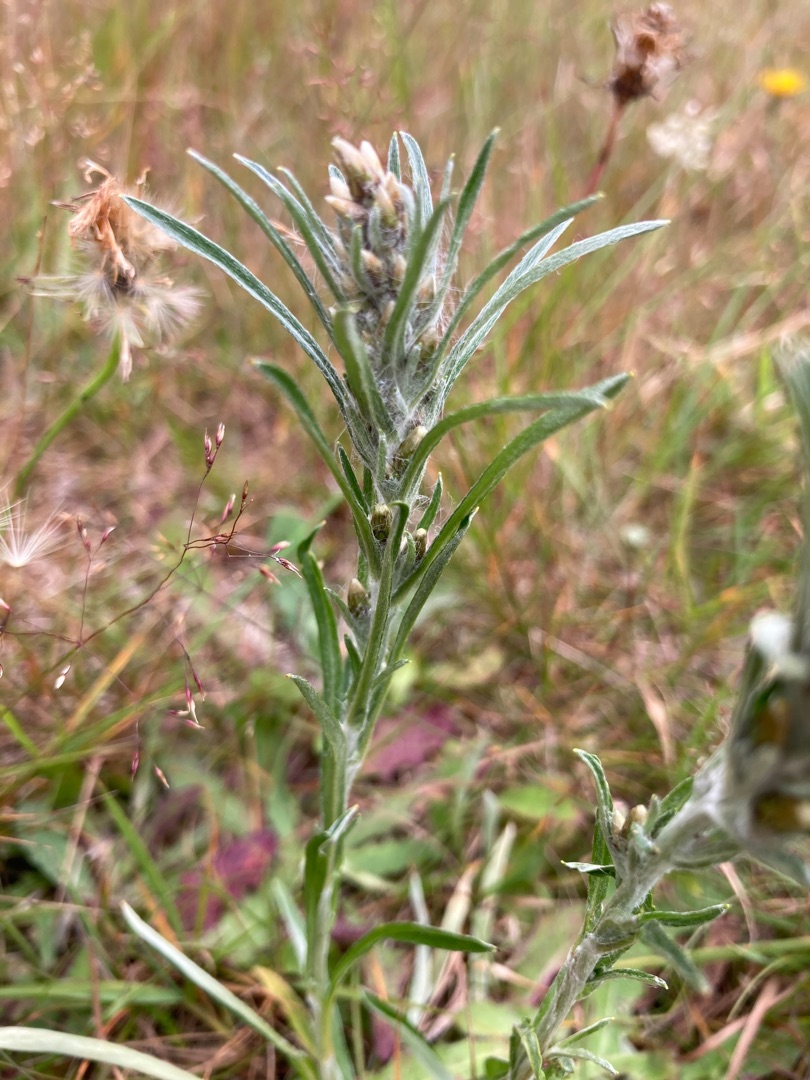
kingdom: Plantae
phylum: Tracheophyta
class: Magnoliopsida
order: Asterales
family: Asteraceae
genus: Omalotheca
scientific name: Omalotheca sylvatica
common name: Rank evighedsblomst
